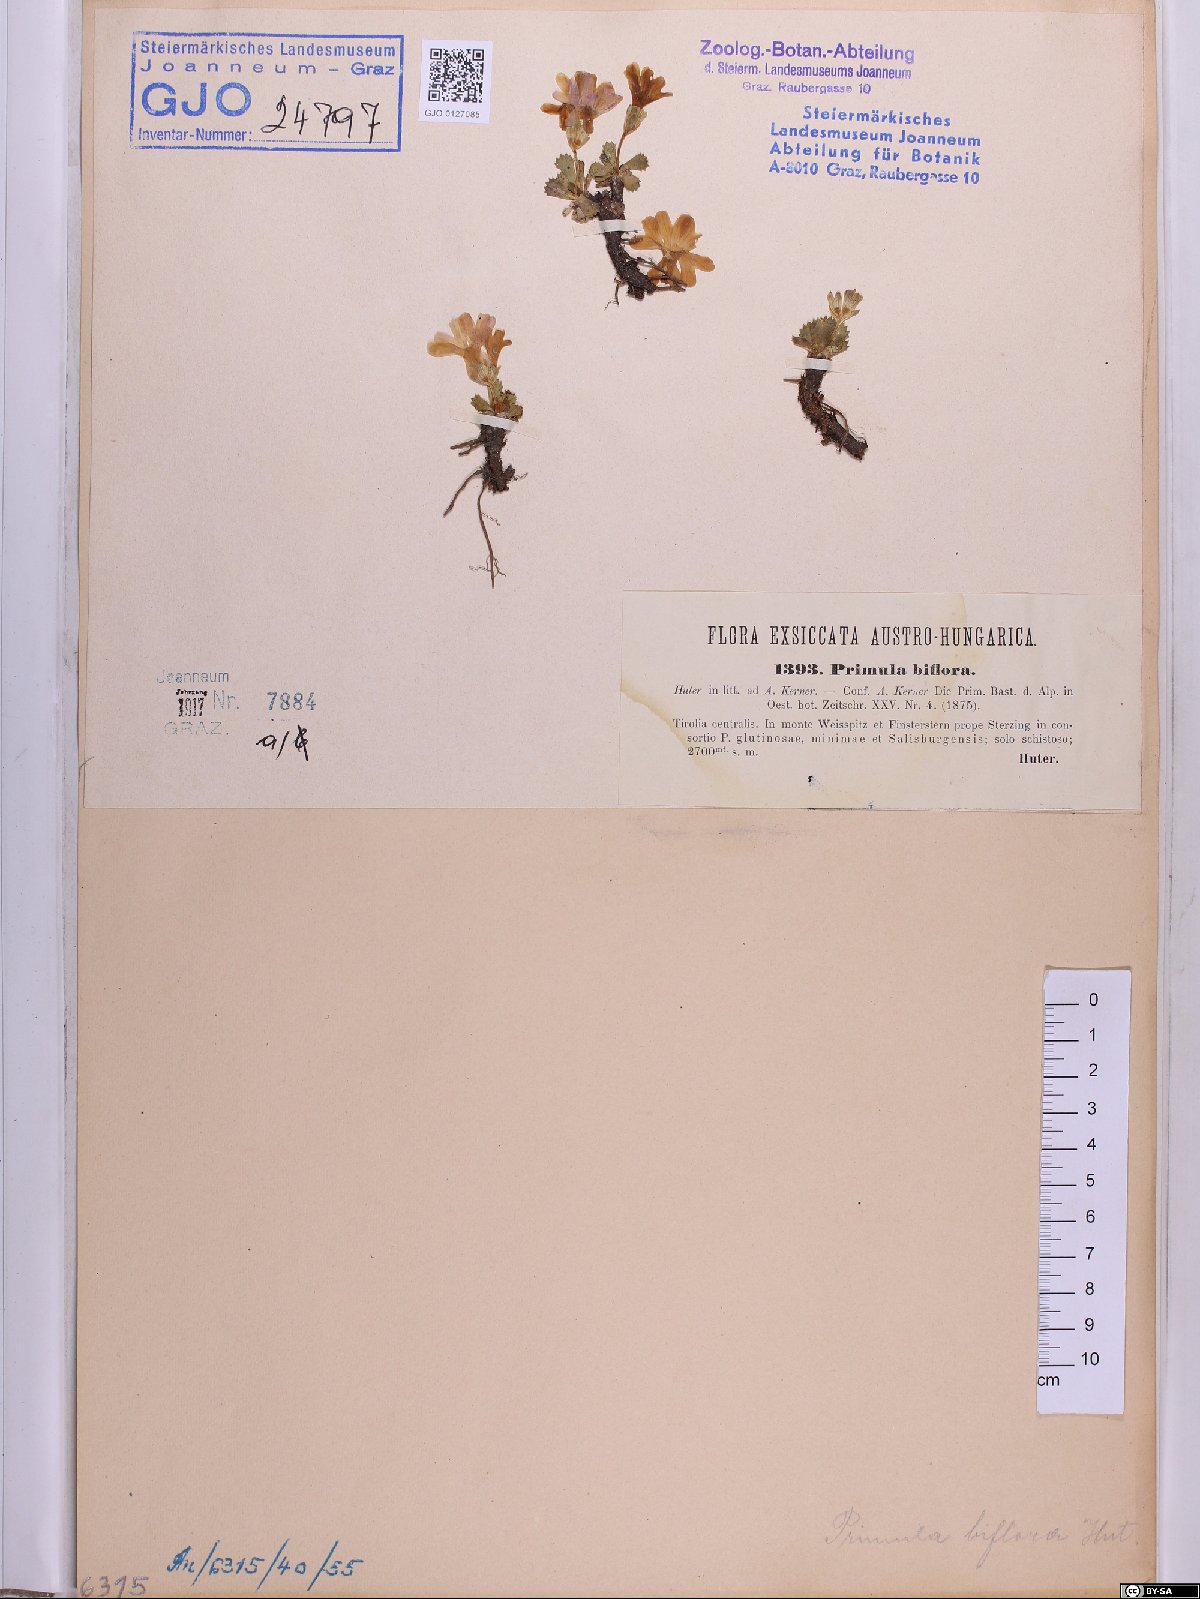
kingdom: Plantae
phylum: Tracheophyta
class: Magnoliopsida
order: Ericales
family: Primulaceae
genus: Primula
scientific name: Primula floerkeana
